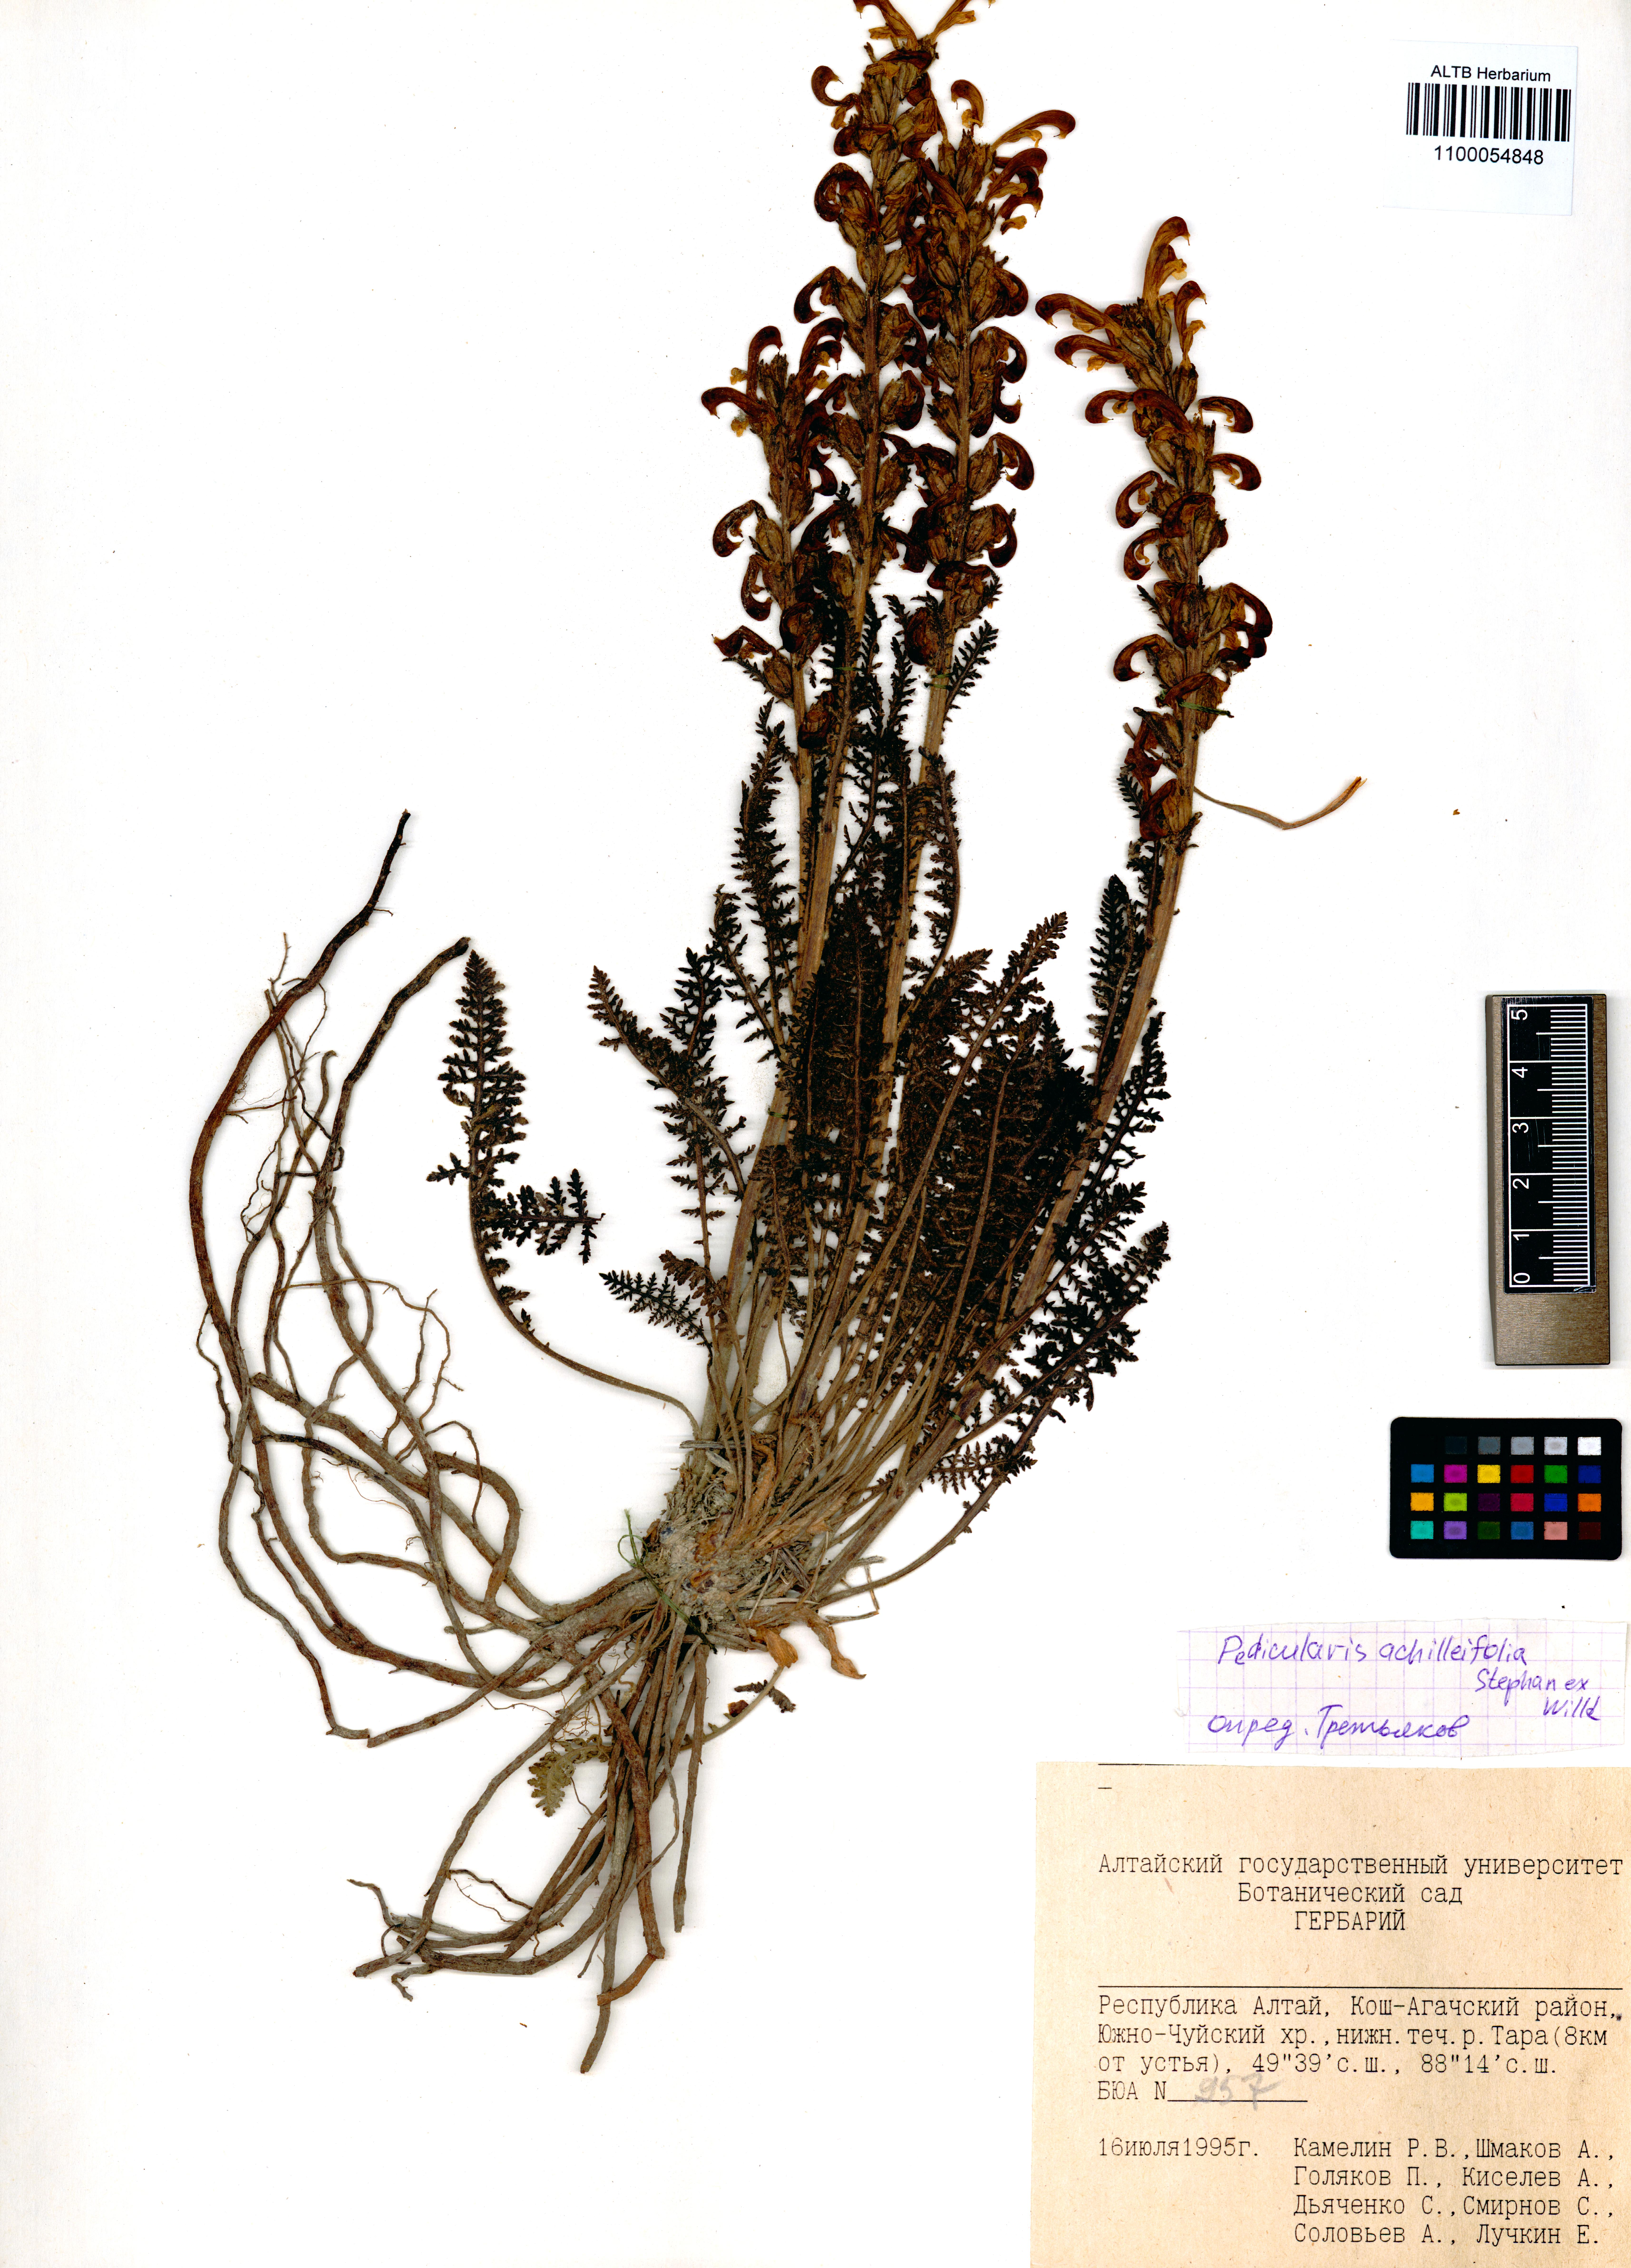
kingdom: Plantae
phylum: Tracheophyta
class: Magnoliopsida
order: Lamiales
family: Orobanchaceae
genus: Pedicularis
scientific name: Pedicularis achilleifolia
